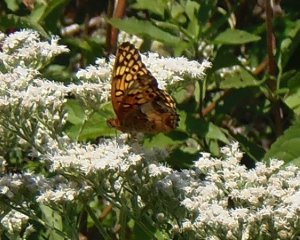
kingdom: Animalia
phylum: Arthropoda
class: Insecta
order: Lepidoptera
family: Nymphalidae
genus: Euptoieta
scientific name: Euptoieta claudia
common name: Variegated Fritillary
